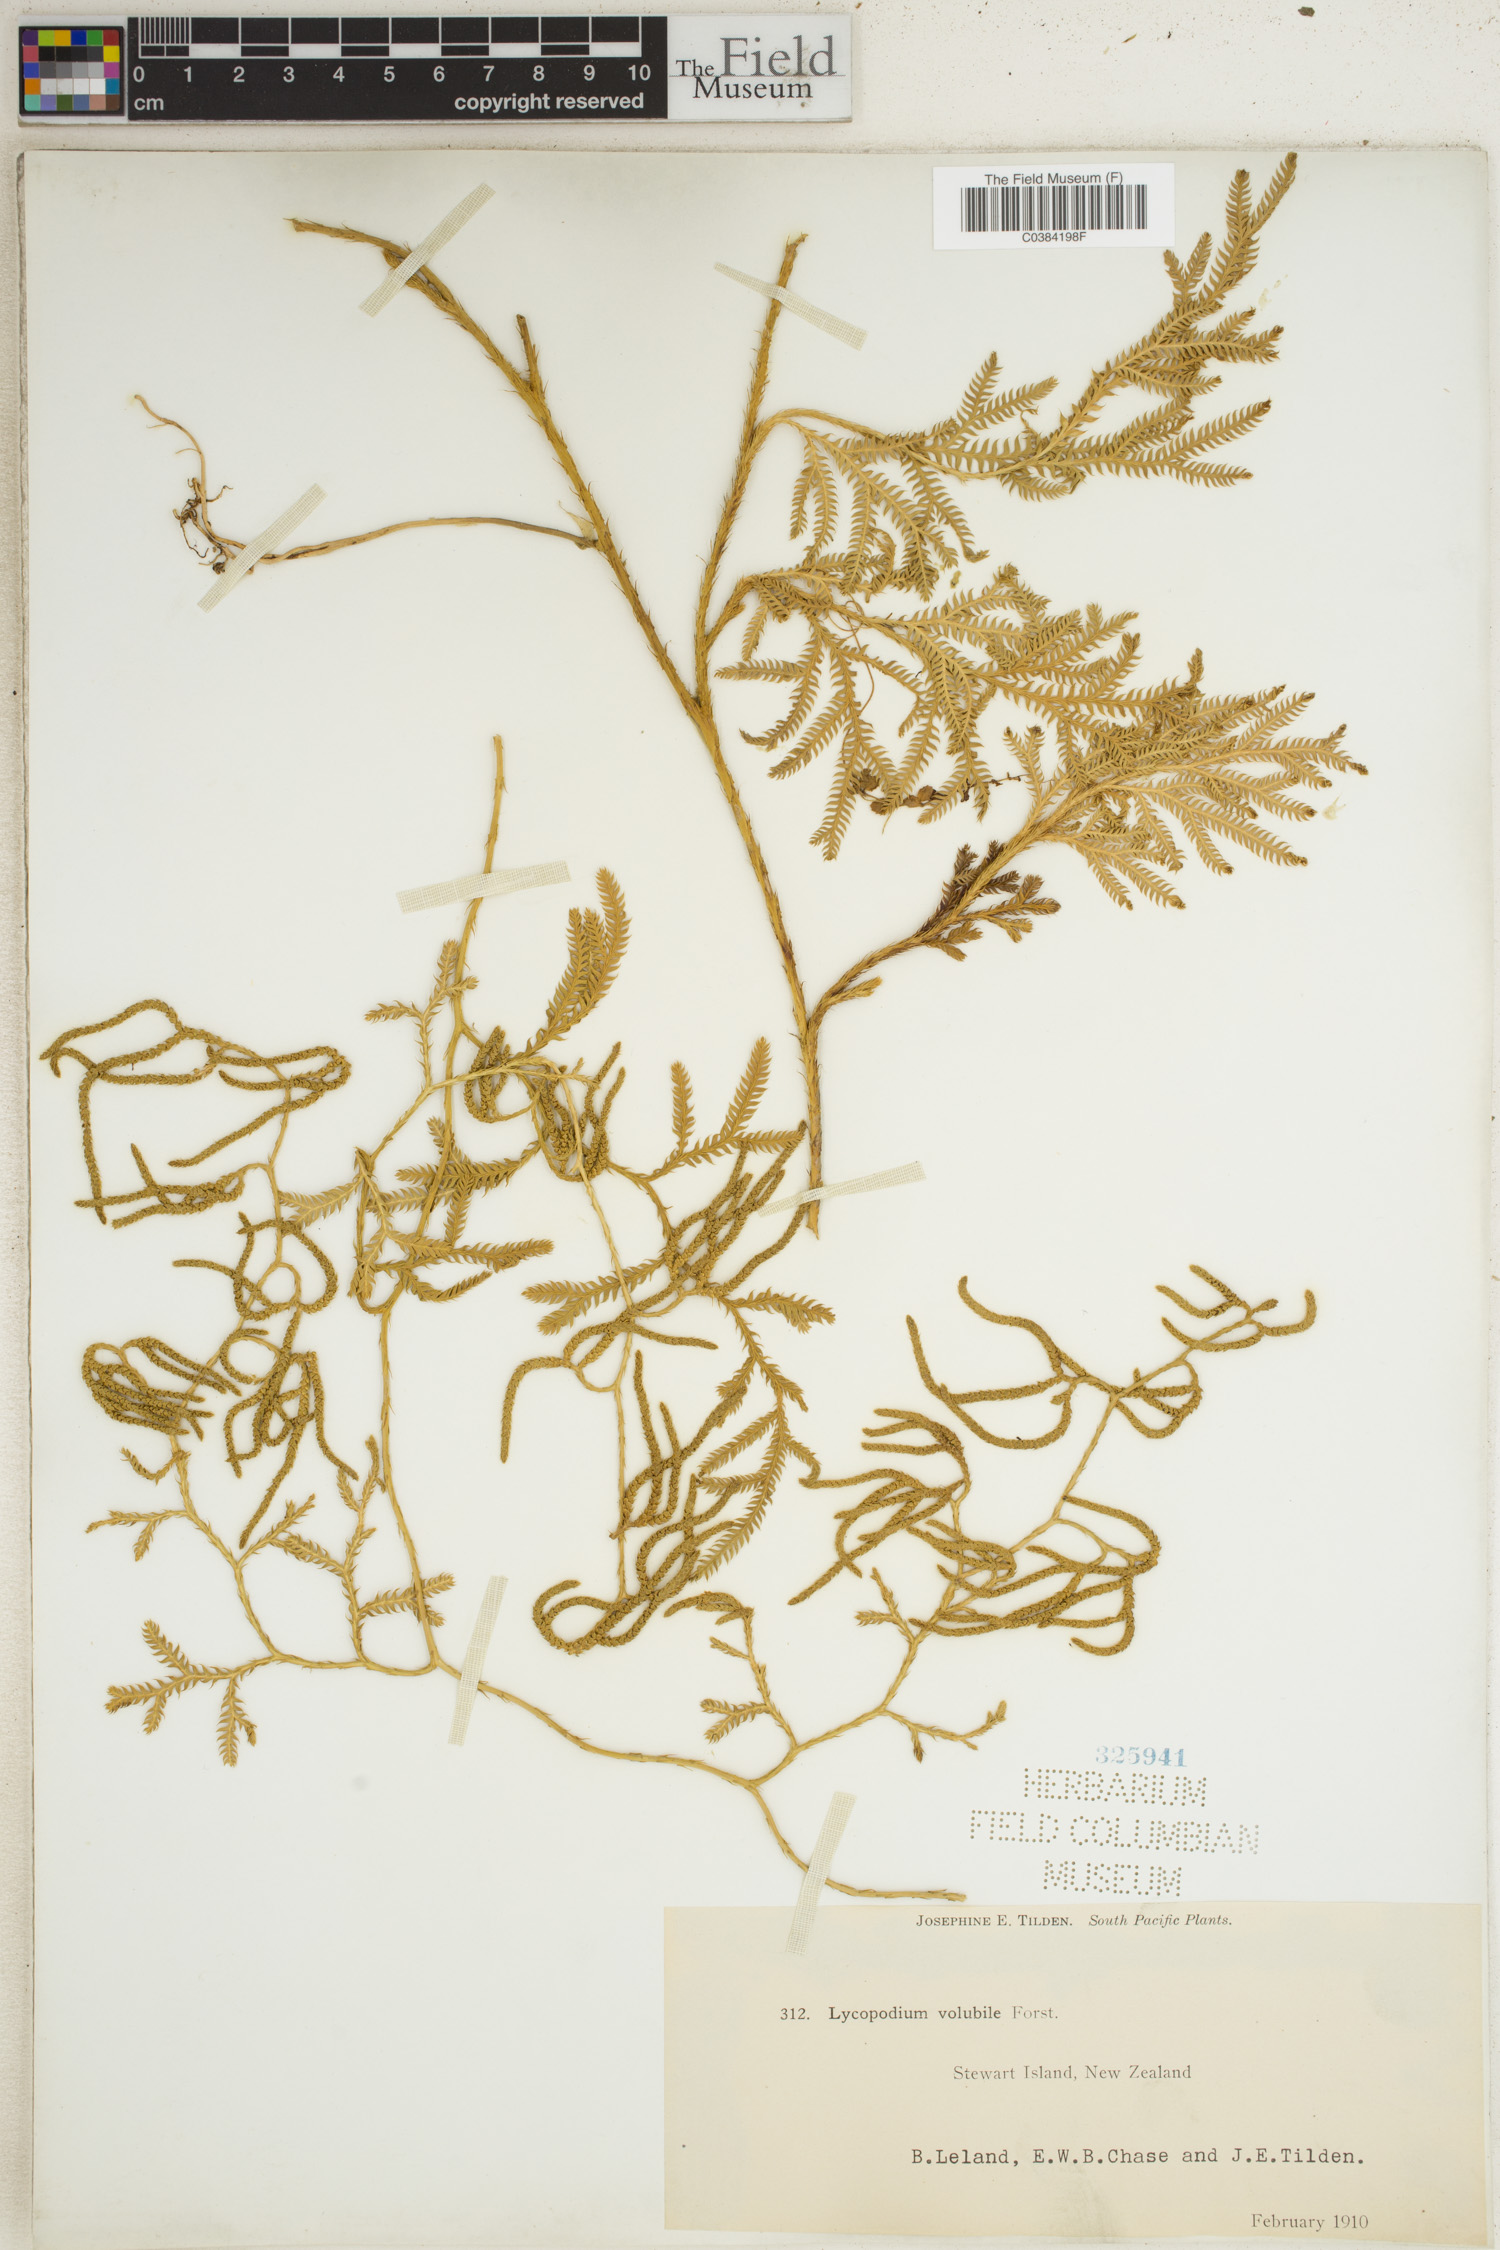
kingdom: Plantae
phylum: Tracheophyta
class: Lycopodiopsida
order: Lycopodiales
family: Lycopodiaceae
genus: Pseudodiphasium
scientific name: Pseudodiphasium volubile
